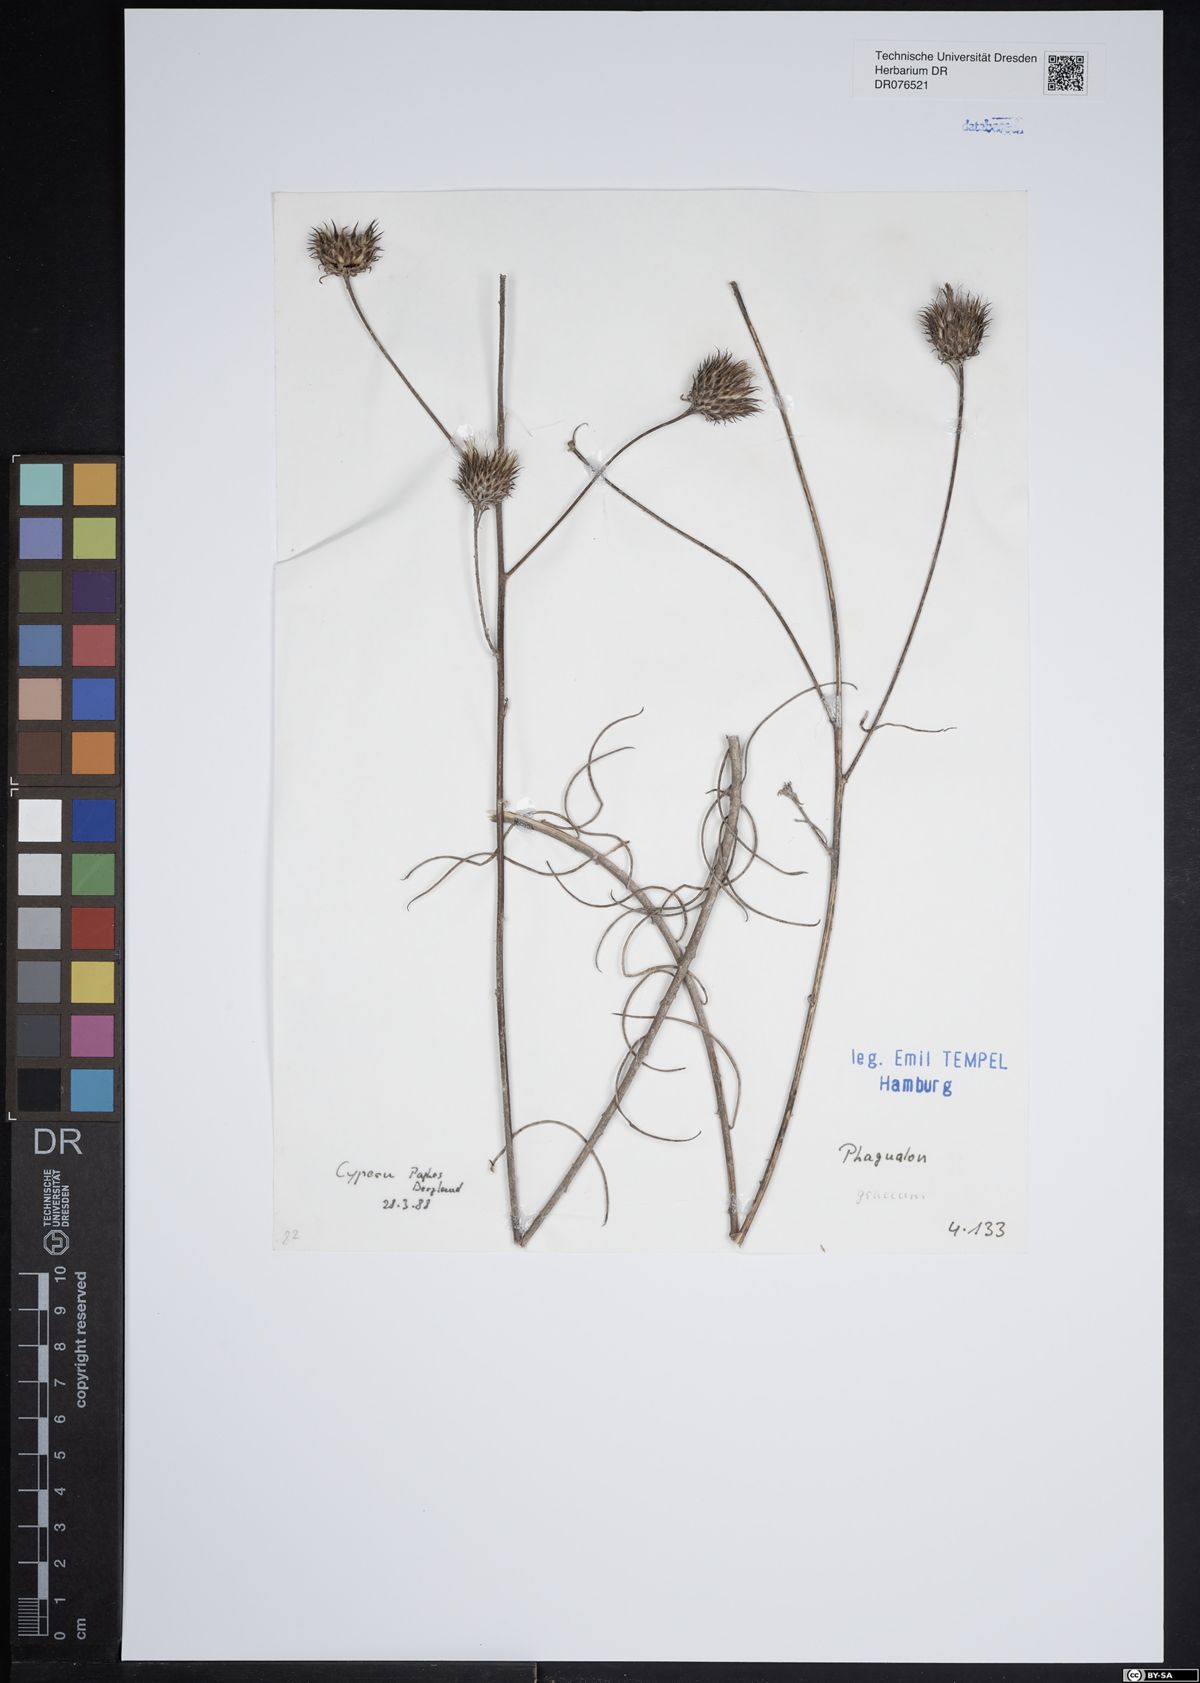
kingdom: Plantae
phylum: Tracheophyta
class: Magnoliopsida
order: Asterales
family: Asteraceae
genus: Phagnalon
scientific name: Phagnalon graecum
